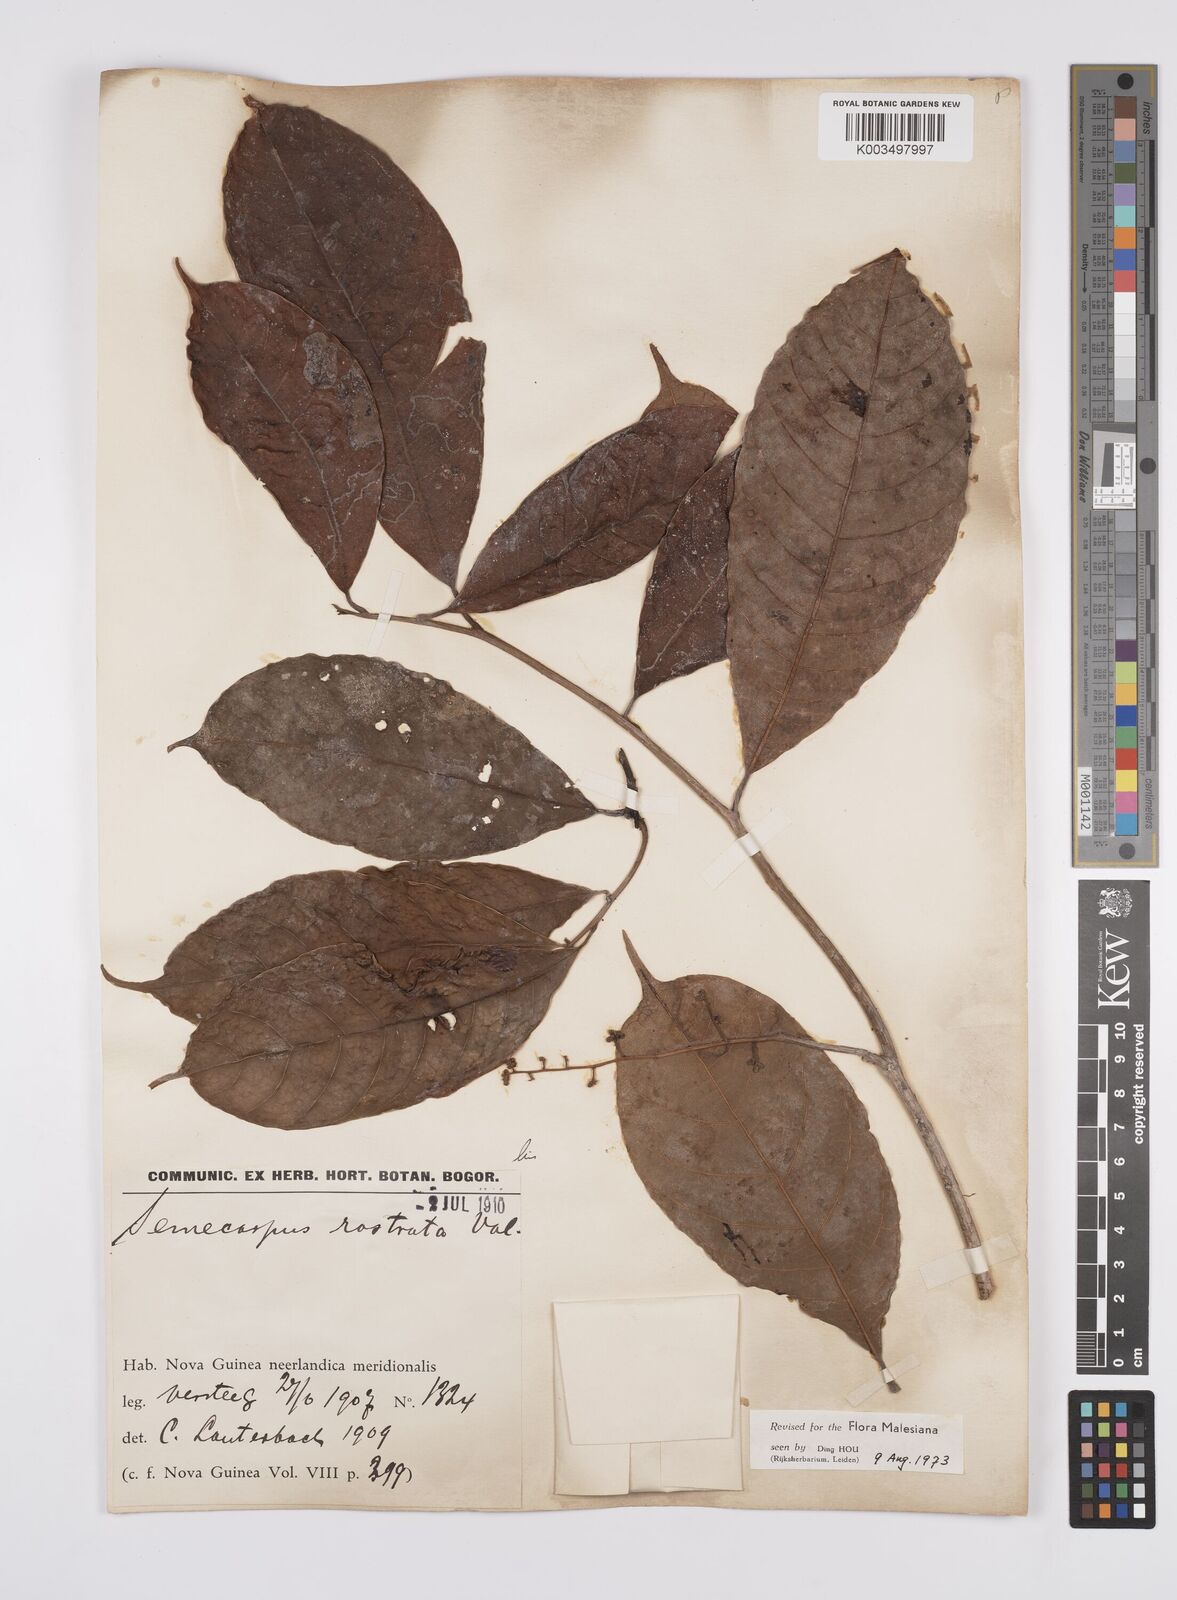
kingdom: Plantae
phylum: Tracheophyta
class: Magnoliopsida
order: Sapindales
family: Anacardiaceae
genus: Semecarpus
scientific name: Semecarpus rostratus
